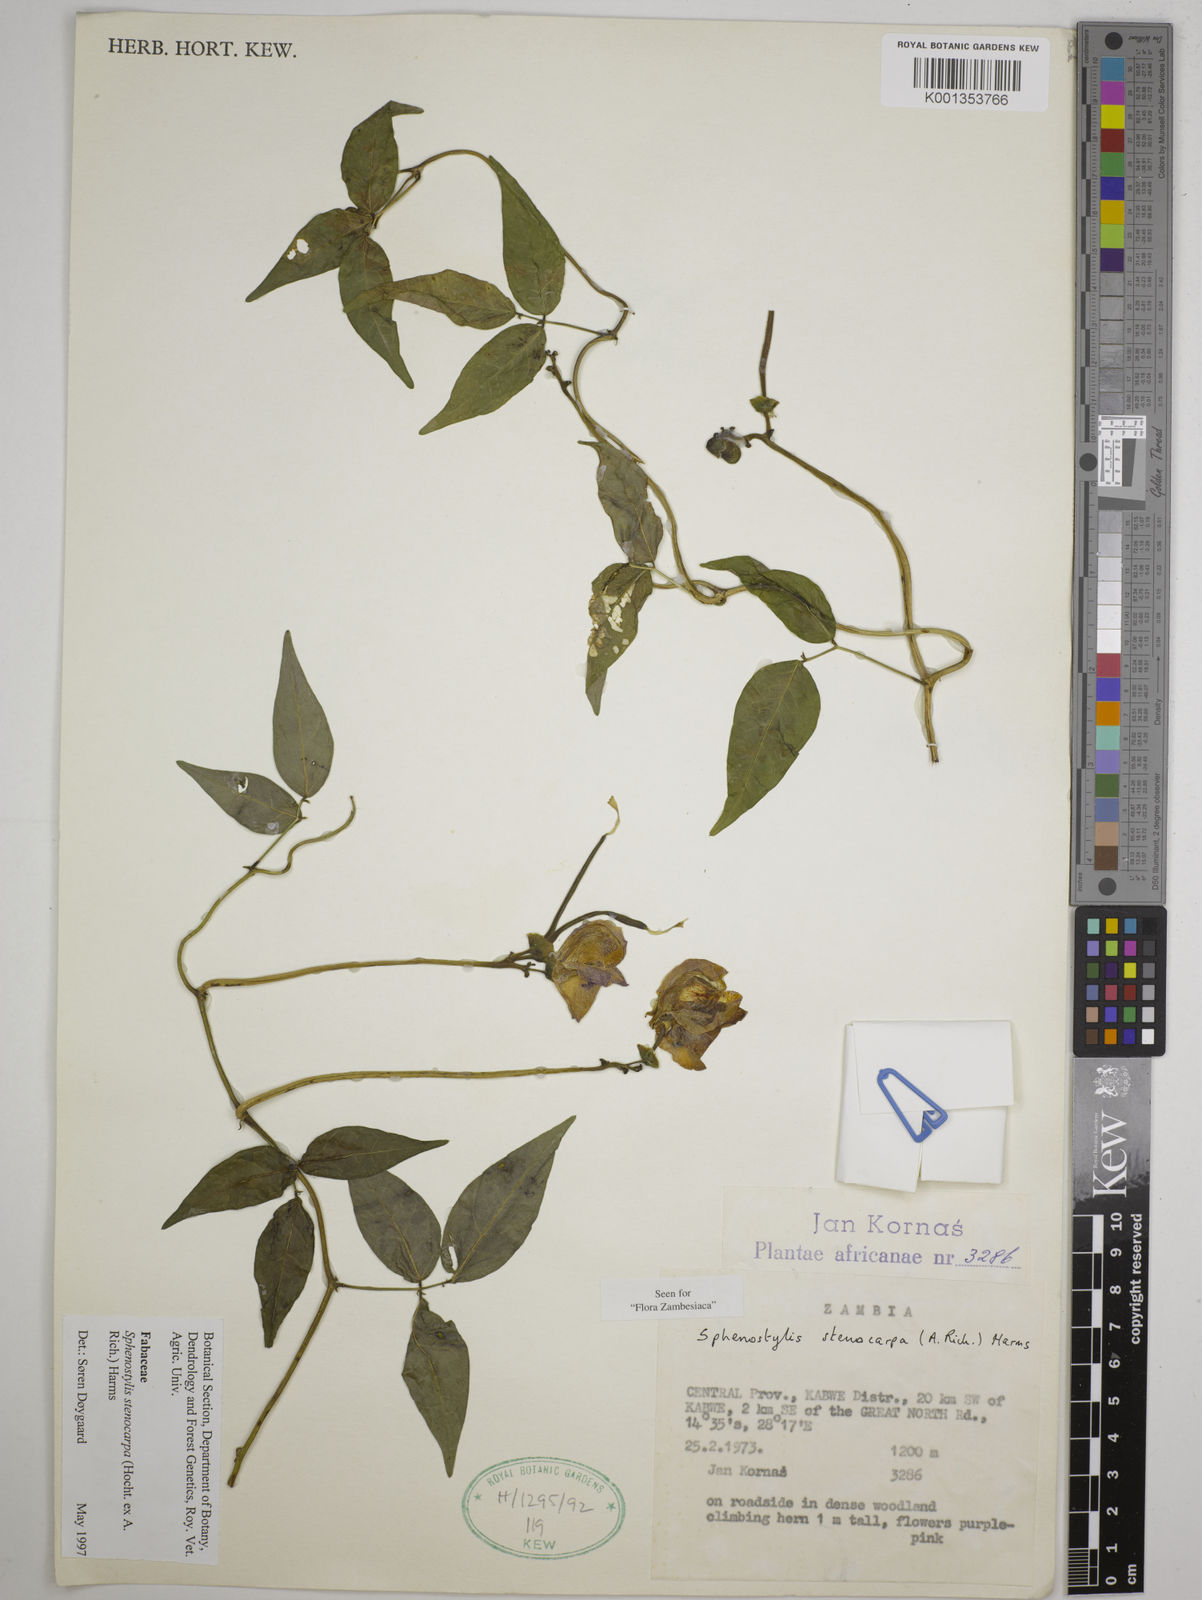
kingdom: Plantae
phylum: Tracheophyta
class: Magnoliopsida
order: Fabales
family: Fabaceae
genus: Sphenostylis
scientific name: Sphenostylis stenocarpa
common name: Yam-pea
